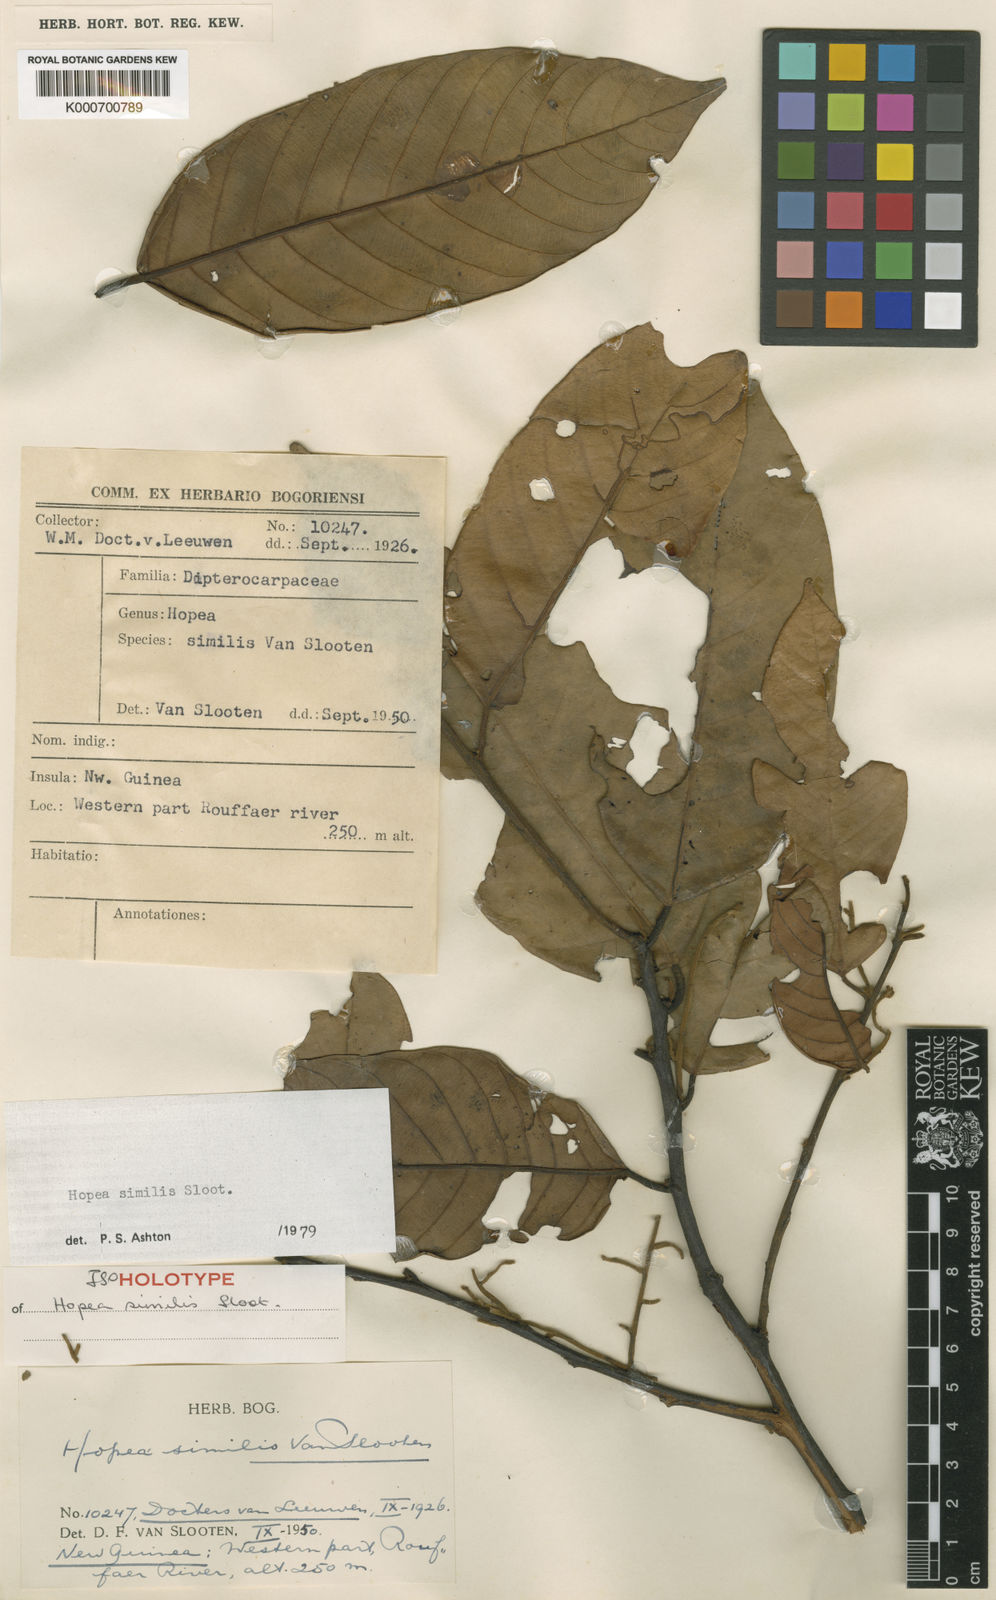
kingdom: Plantae
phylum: Tracheophyta
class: Magnoliopsida
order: Malvales
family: Dipterocarpaceae
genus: Hopea
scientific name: Hopea similis
